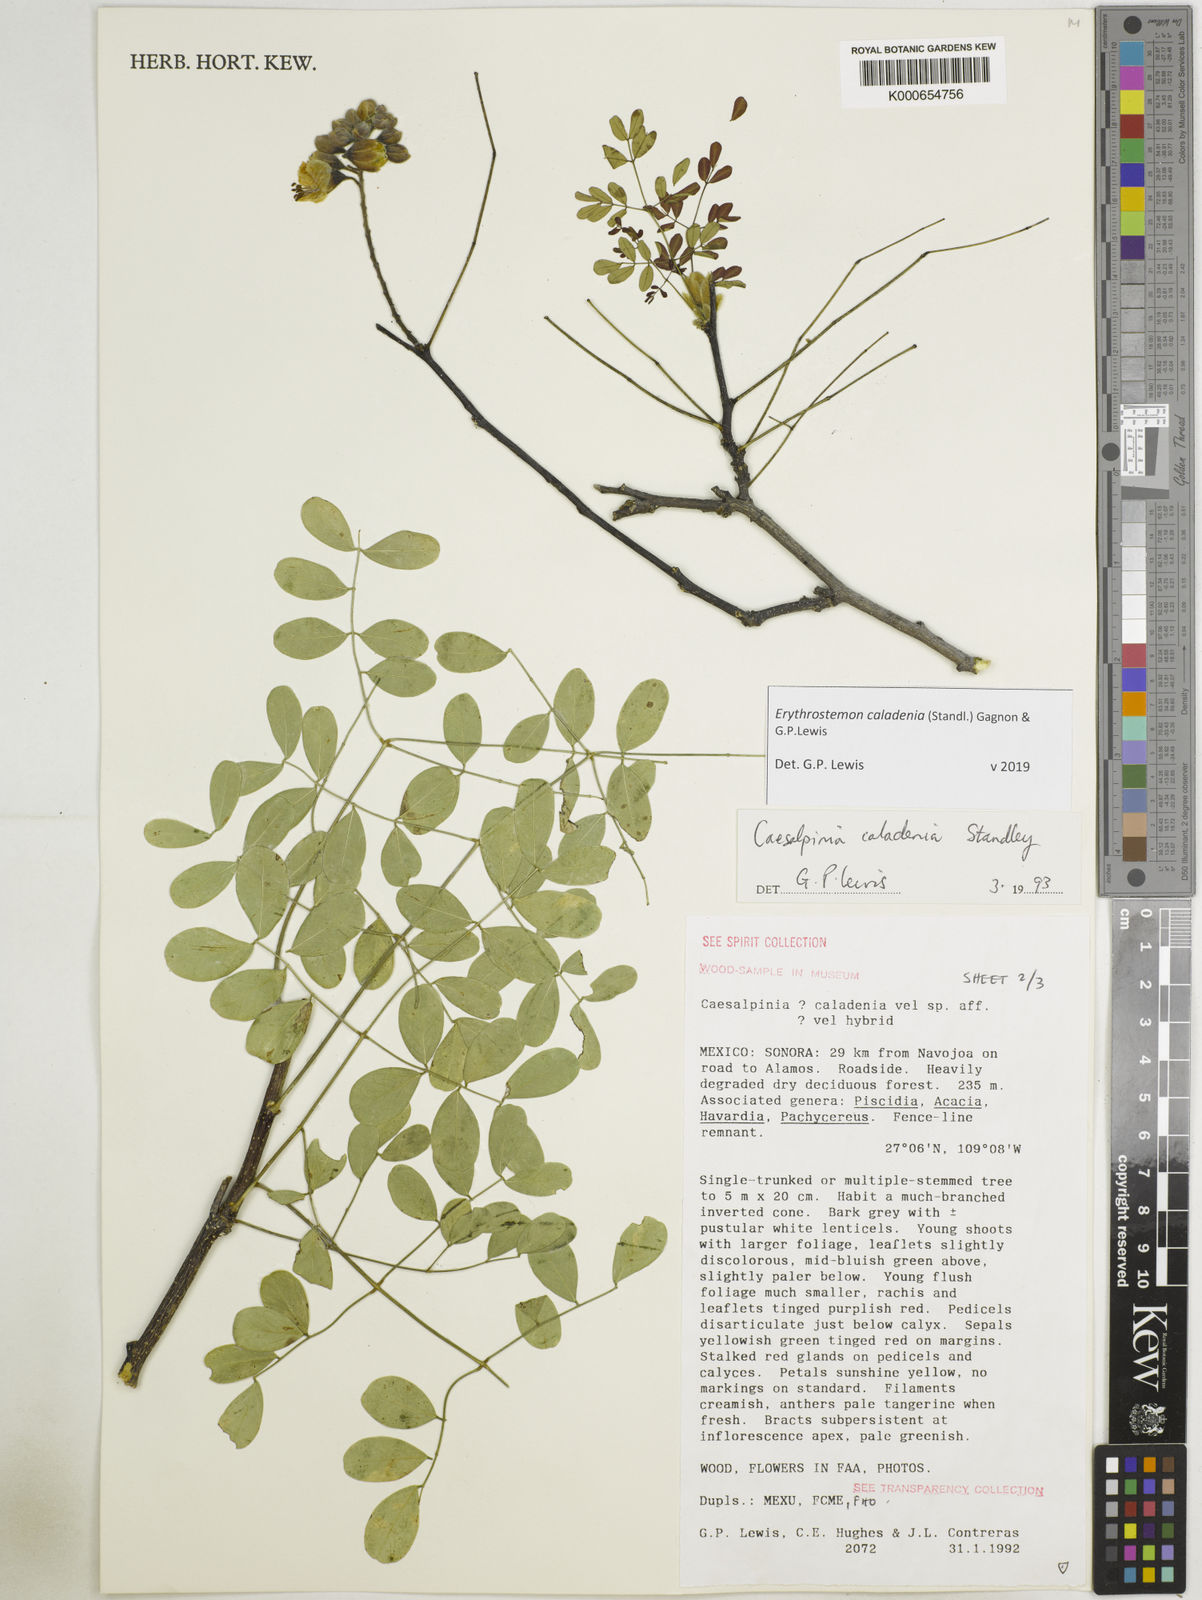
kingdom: Plantae
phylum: Tracheophyta
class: Magnoliopsida
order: Fabales
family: Fabaceae
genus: Erythrostemon
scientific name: Erythrostemon caladenia
